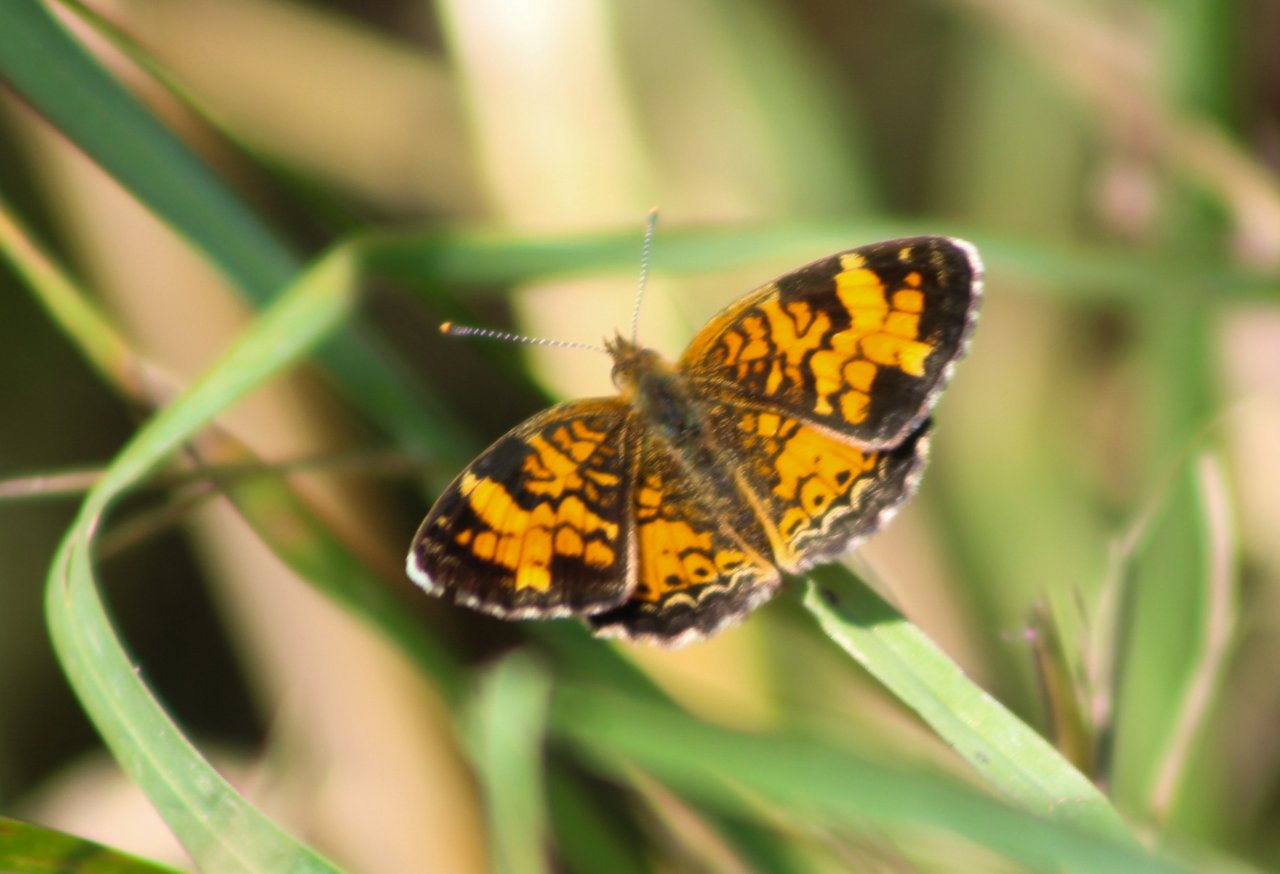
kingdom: Animalia
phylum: Arthropoda
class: Insecta
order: Lepidoptera
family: Nymphalidae
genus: Phyciodes
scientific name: Phyciodes tharos
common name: Northern Crescent
